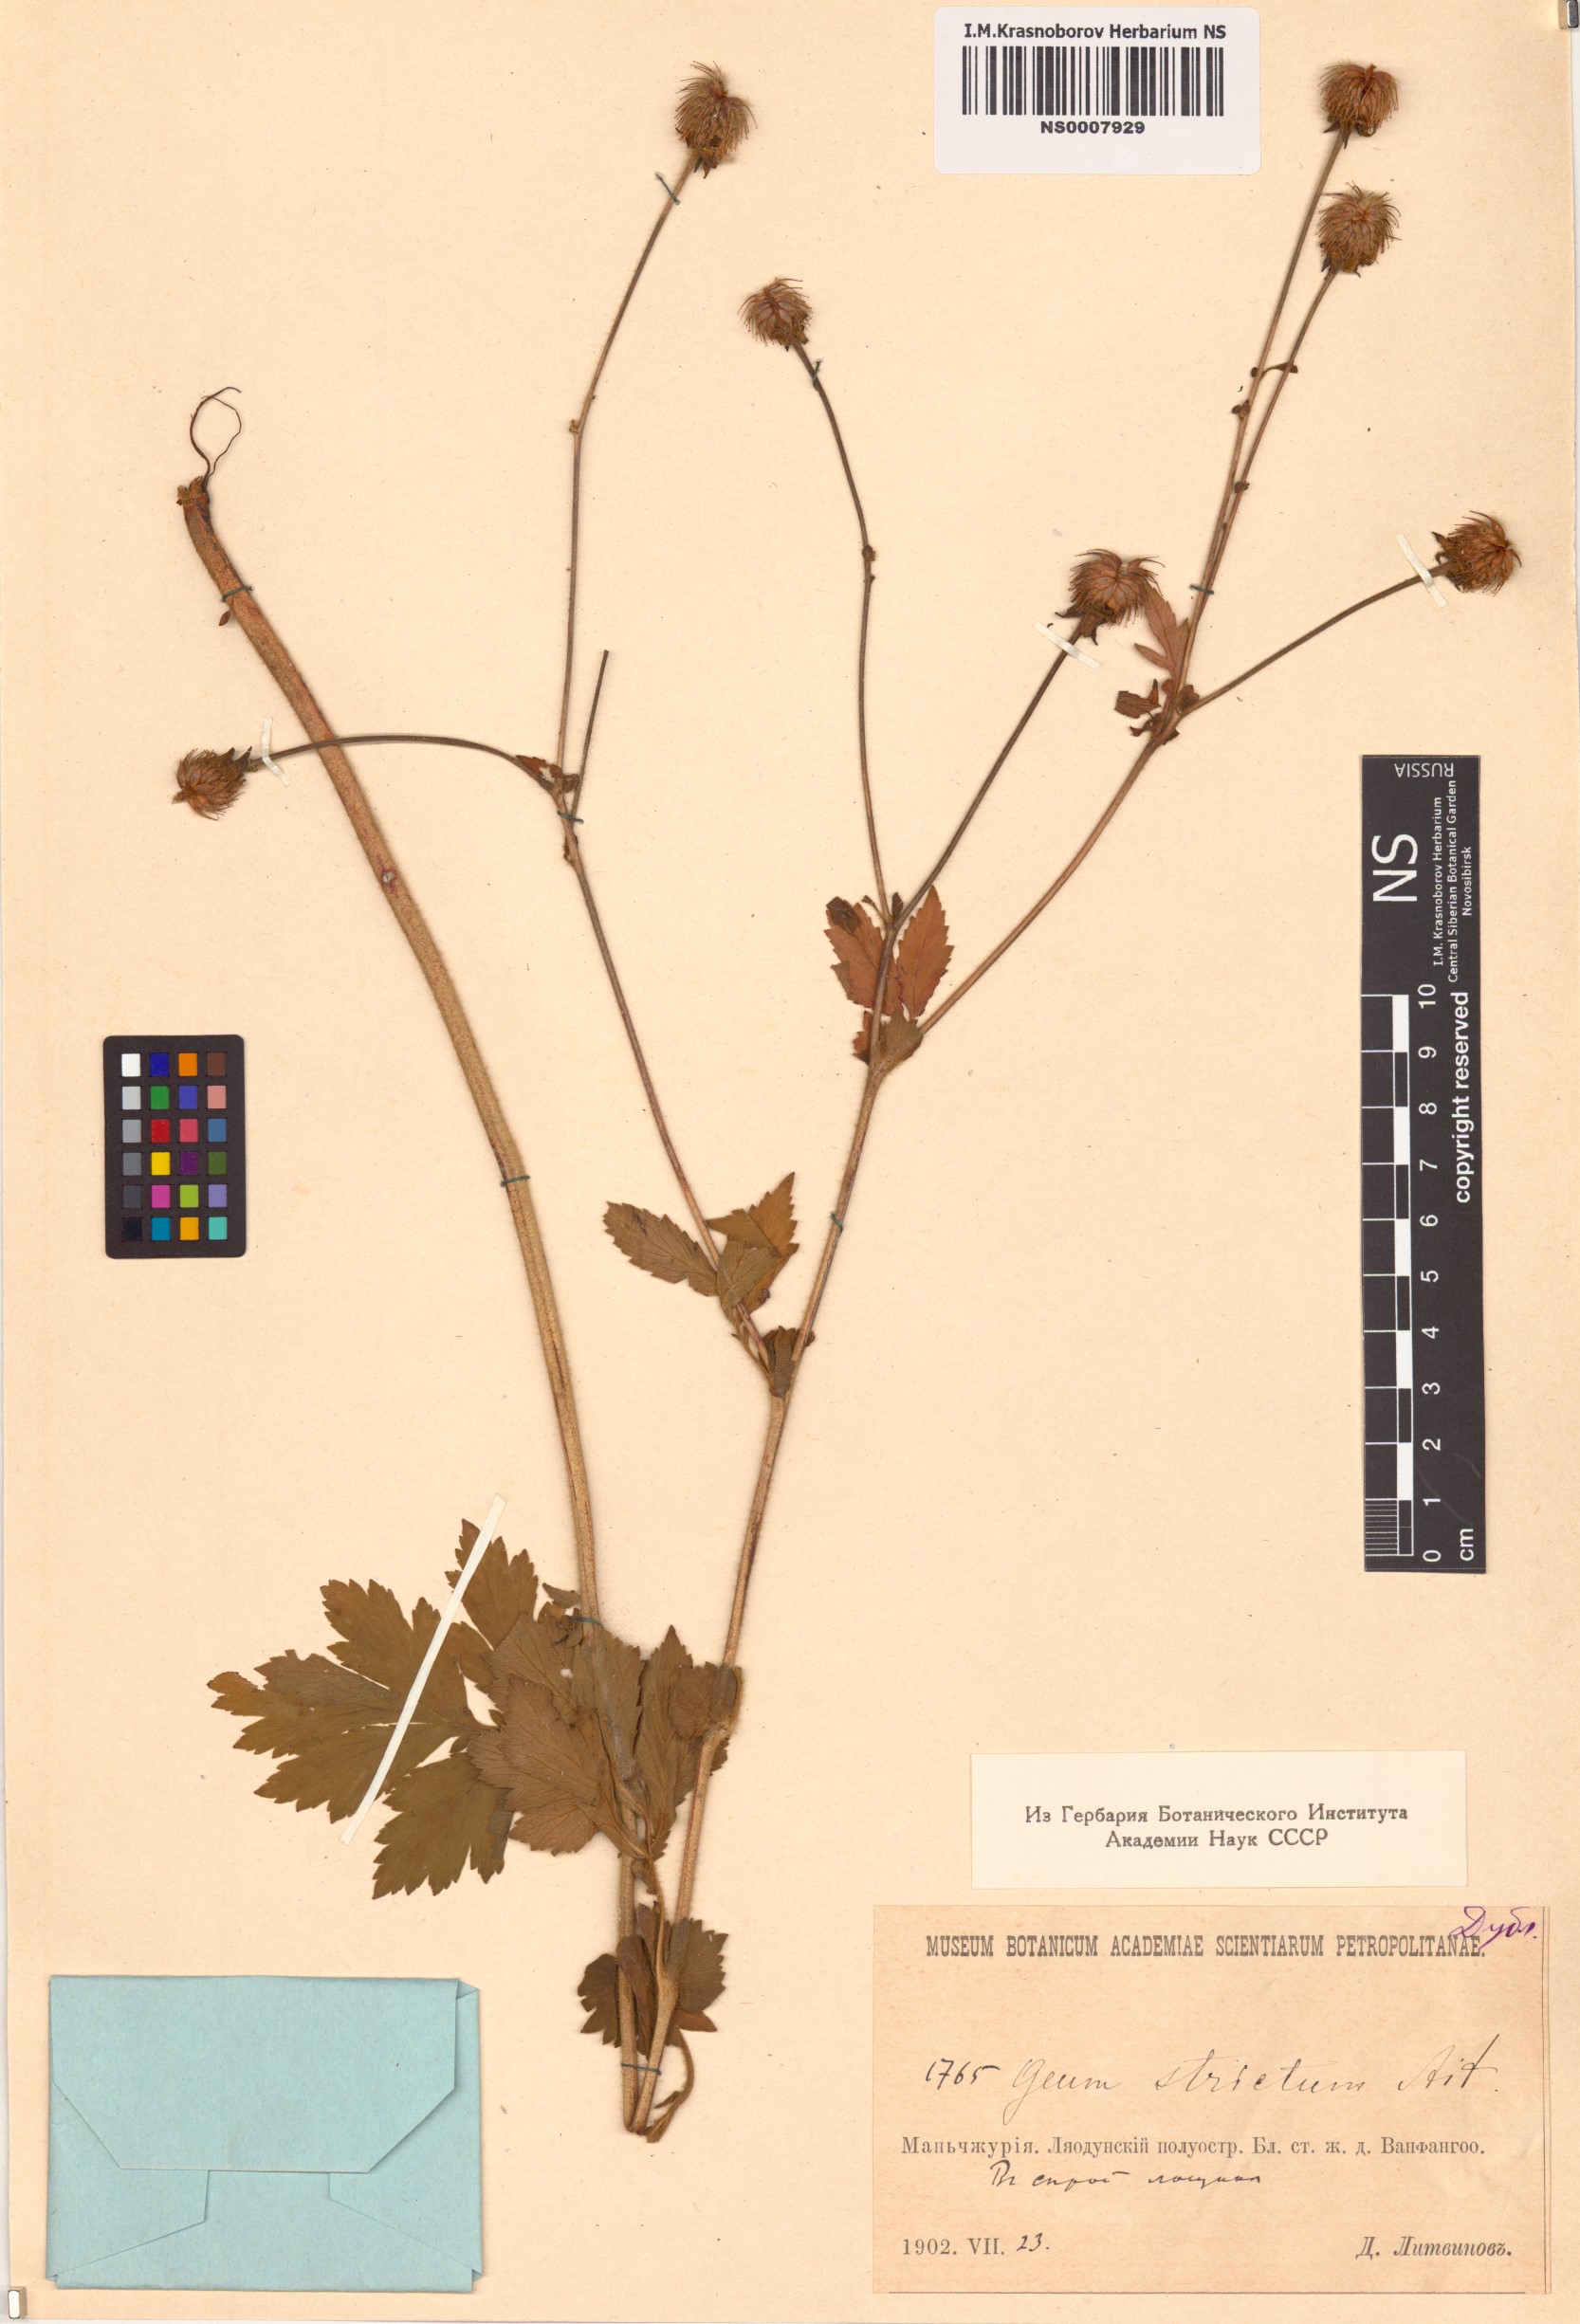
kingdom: Plantae
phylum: Tracheophyta
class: Magnoliopsida
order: Rosales
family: Rosaceae
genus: Geum
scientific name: Geum aleppicum
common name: Yellow avens
